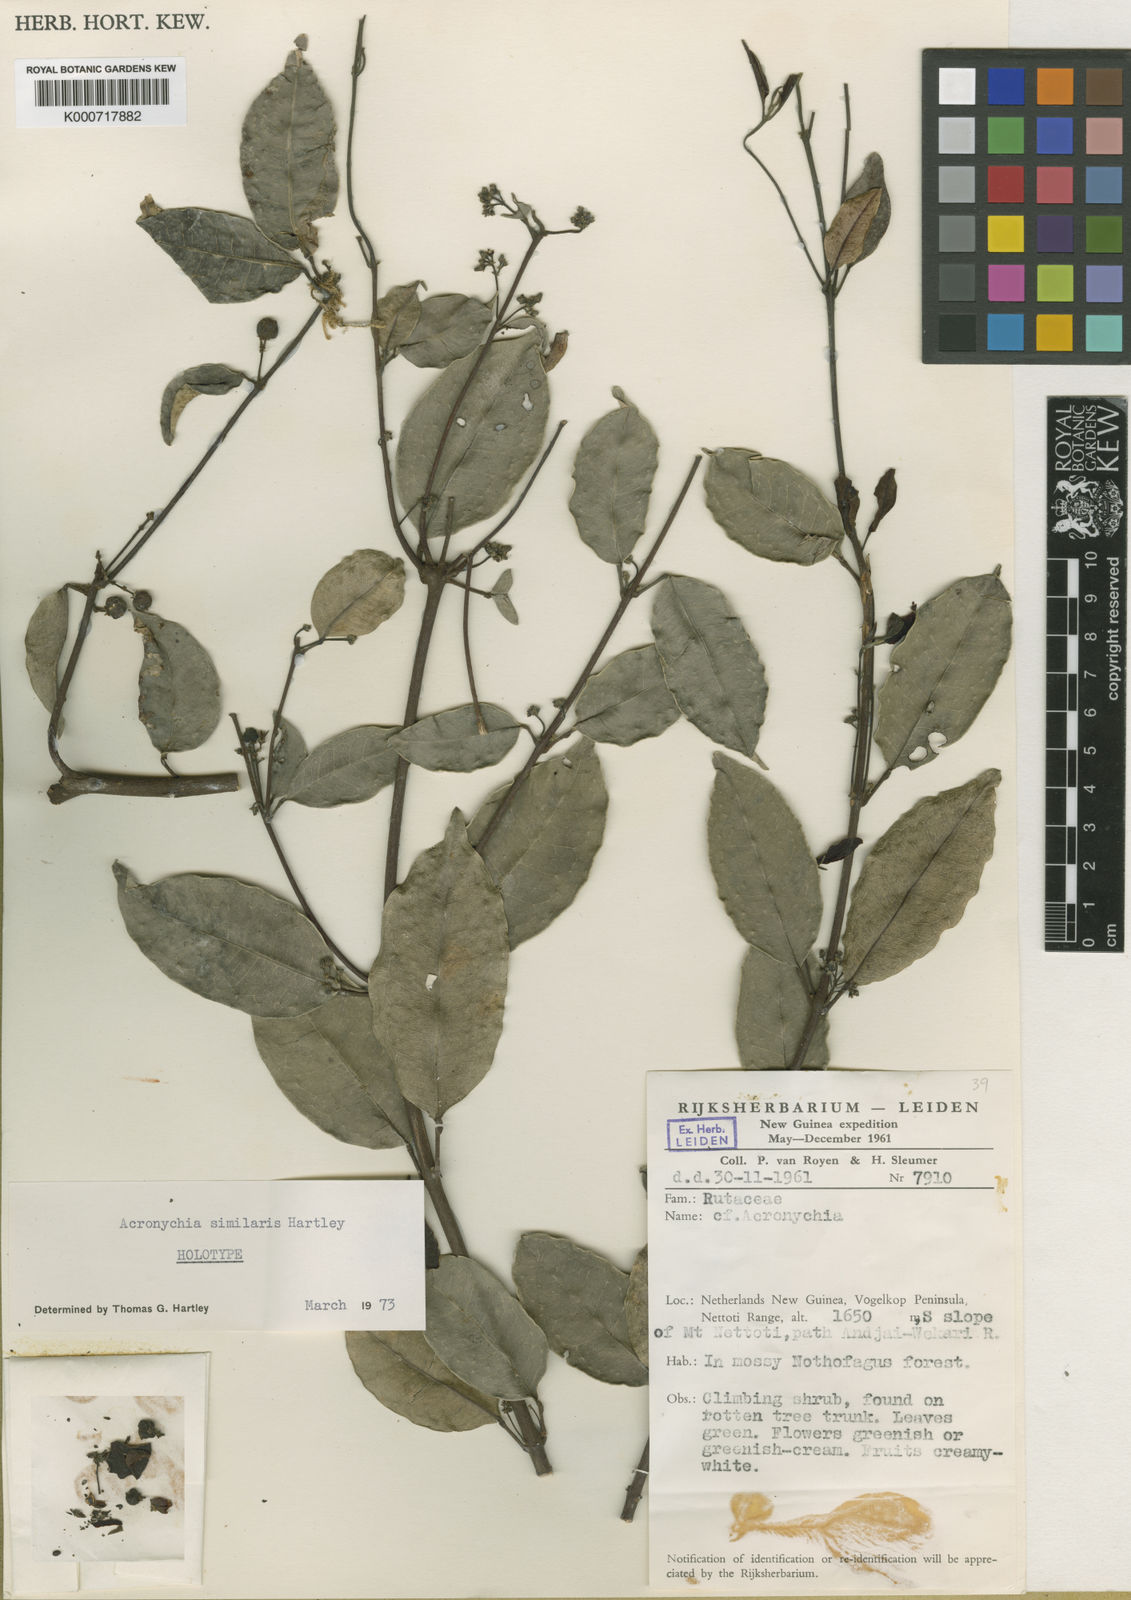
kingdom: Plantae
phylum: Tracheophyta
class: Magnoliopsida
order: Sapindales
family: Rutaceae
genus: Acronychia
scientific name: Acronychia similaris
